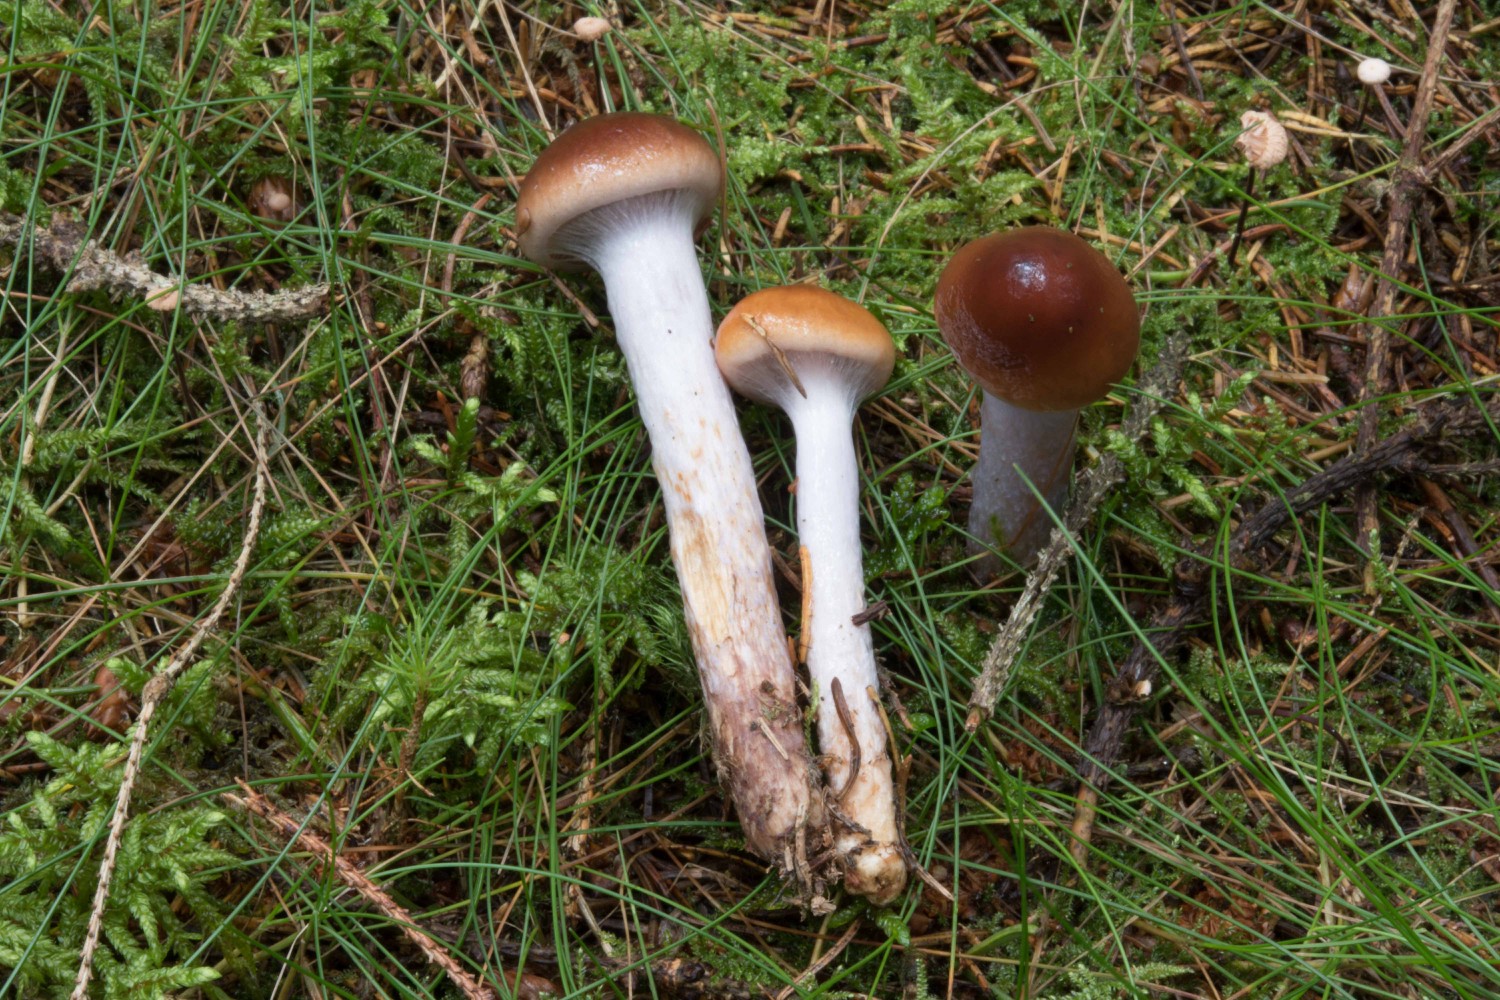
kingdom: Fungi
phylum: Basidiomycota
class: Agaricomycetes
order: Agaricales
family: Cortinariaceae
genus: Cortinarius
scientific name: Cortinarius stillatitius
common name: honningduftende slørhat
